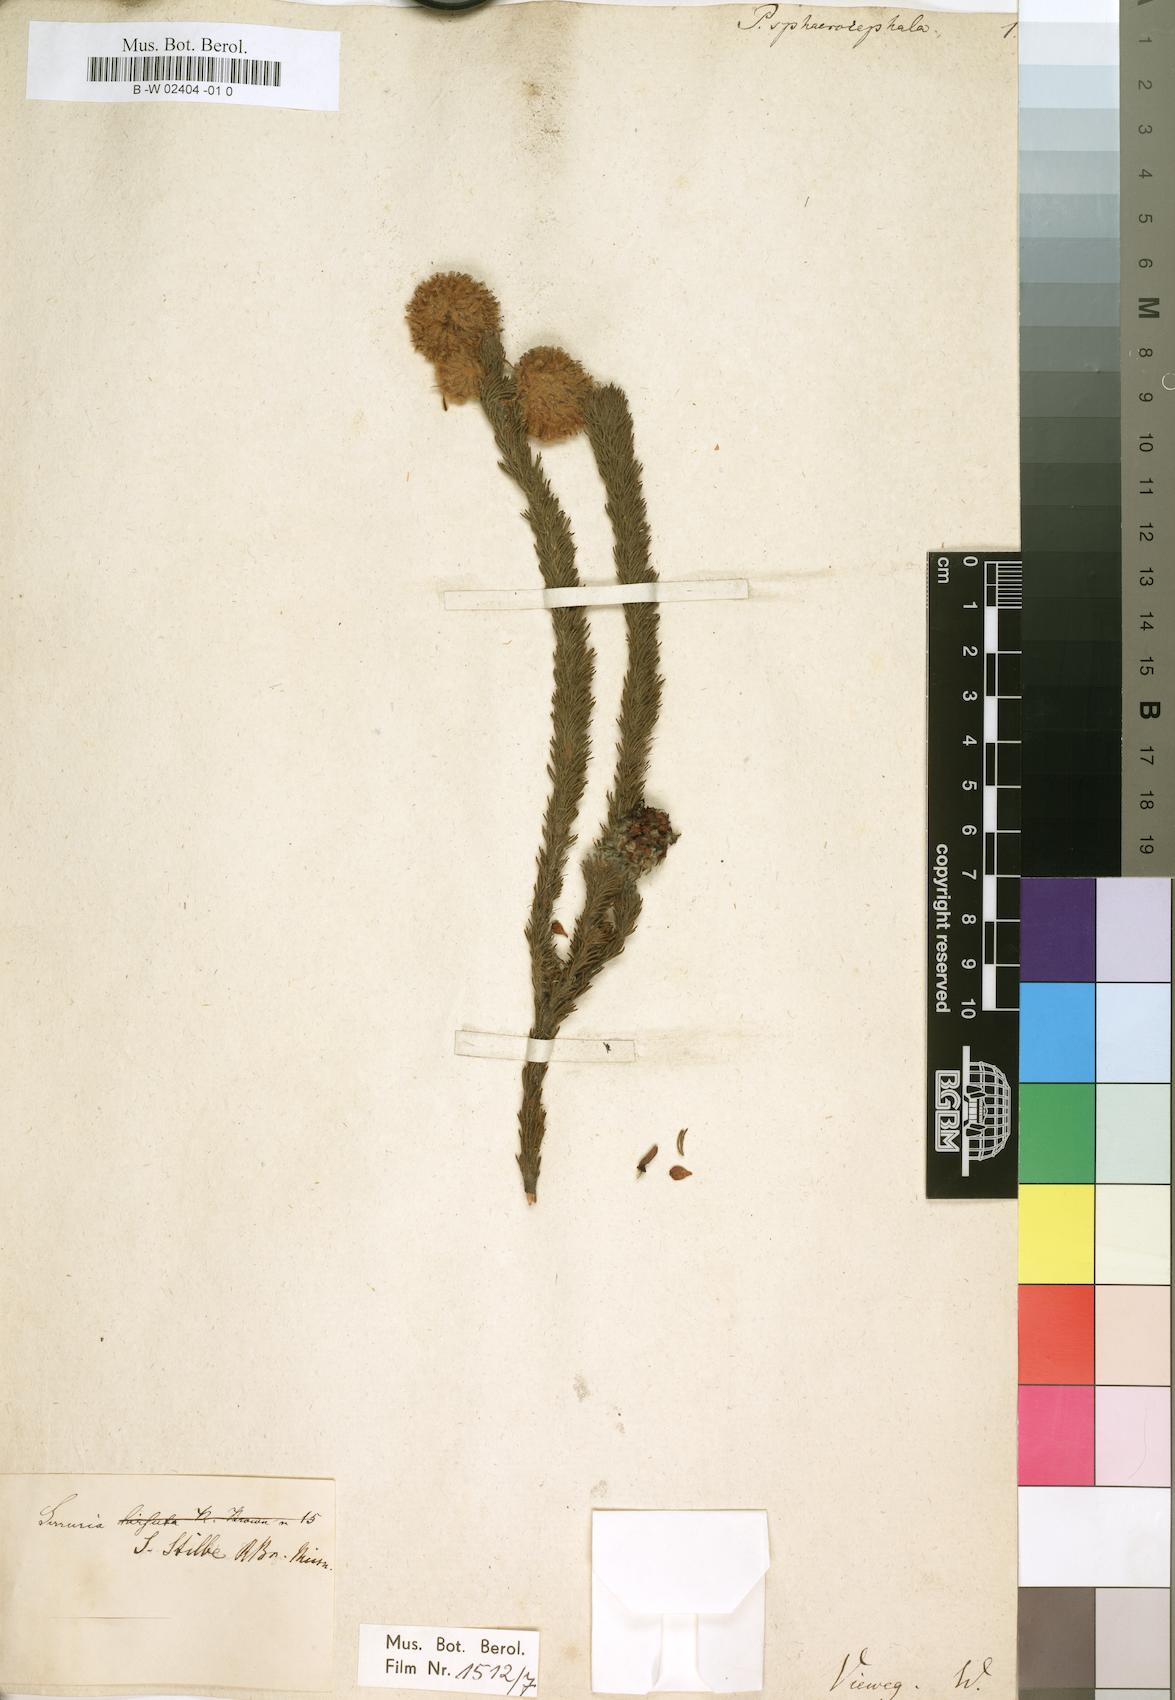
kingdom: Plantae
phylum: Tracheophyta
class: Magnoliopsida
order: Proteales
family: Proteaceae
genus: Serruria
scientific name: Serruria
